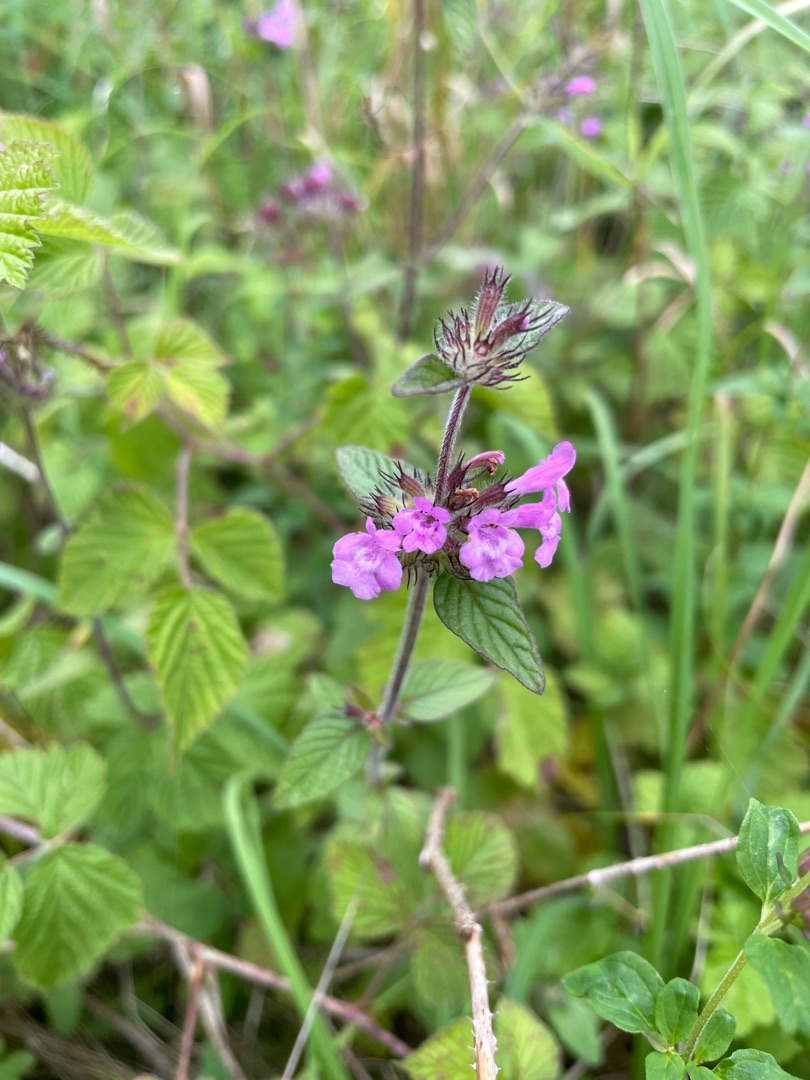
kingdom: Plantae
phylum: Tracheophyta
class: Magnoliopsida
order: Lamiales
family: Lamiaceae
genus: Clinopodium
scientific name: Clinopodium vulgare
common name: Kransbørste
